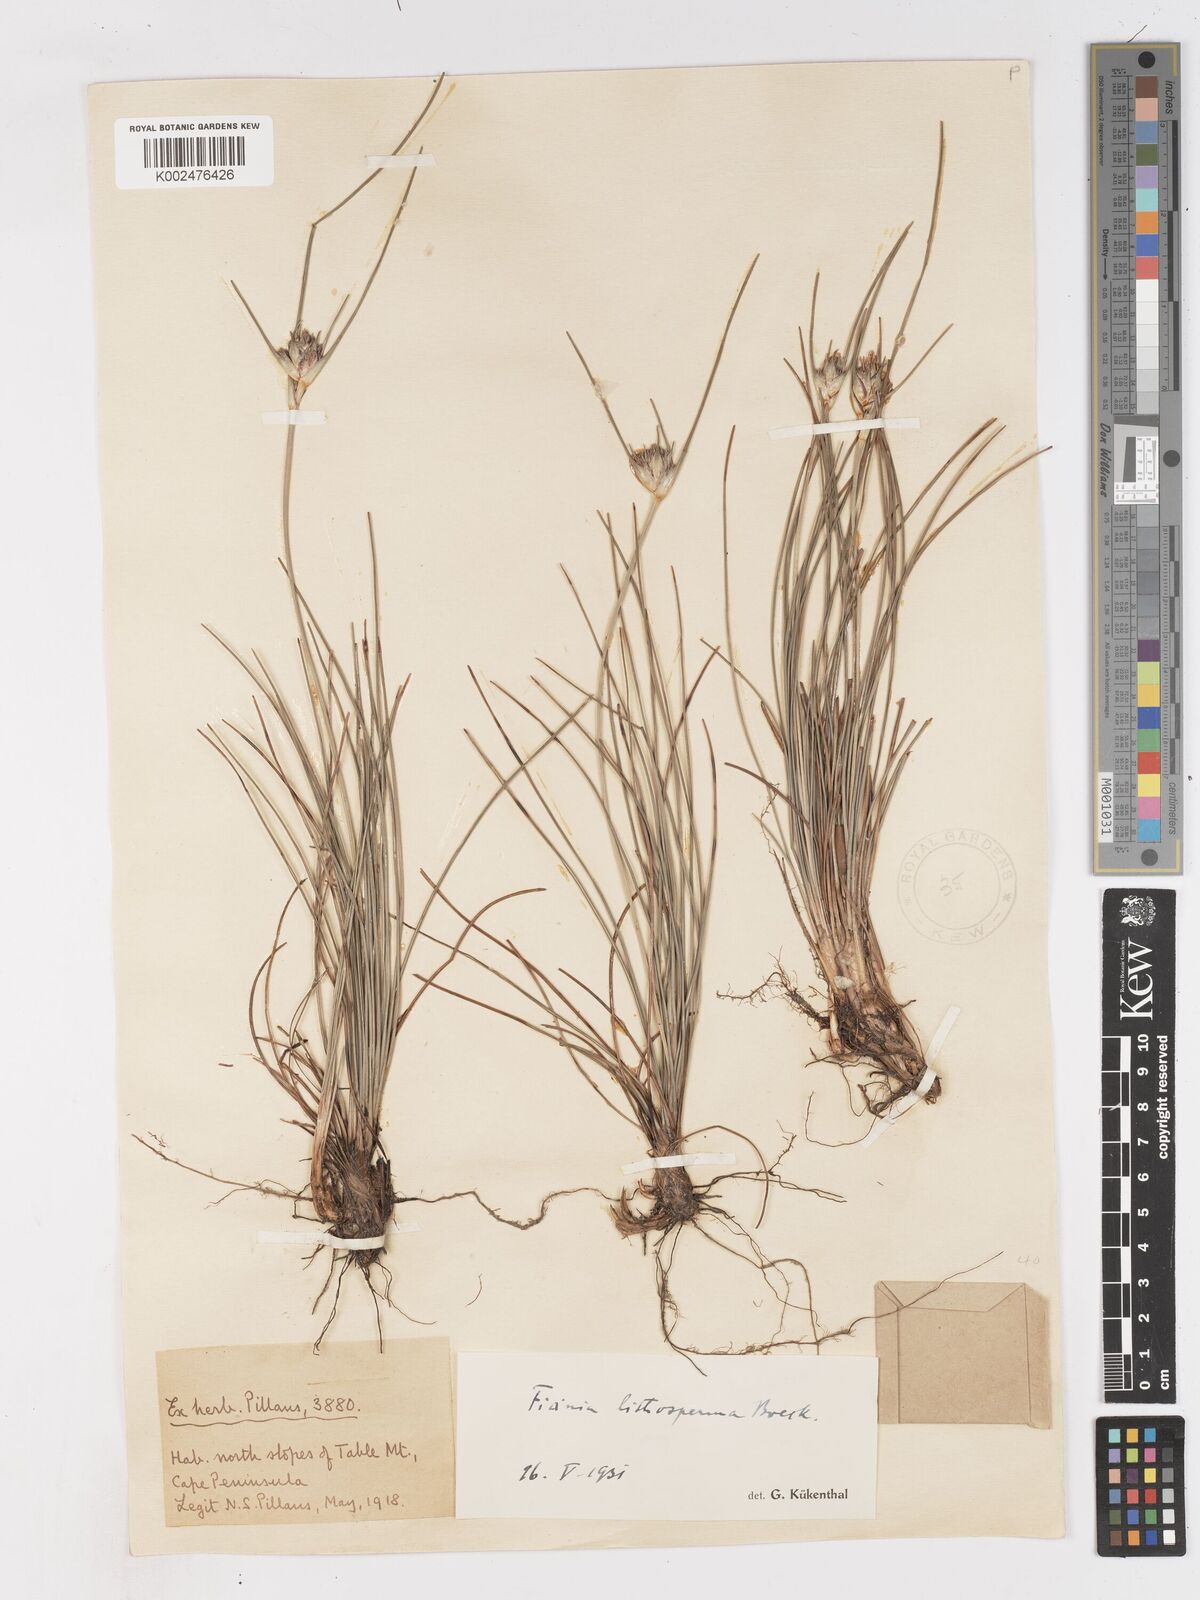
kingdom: Plantae
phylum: Tracheophyta
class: Liliopsida
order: Poales
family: Cyperaceae
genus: Ficinia
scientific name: Ficinia pallens
